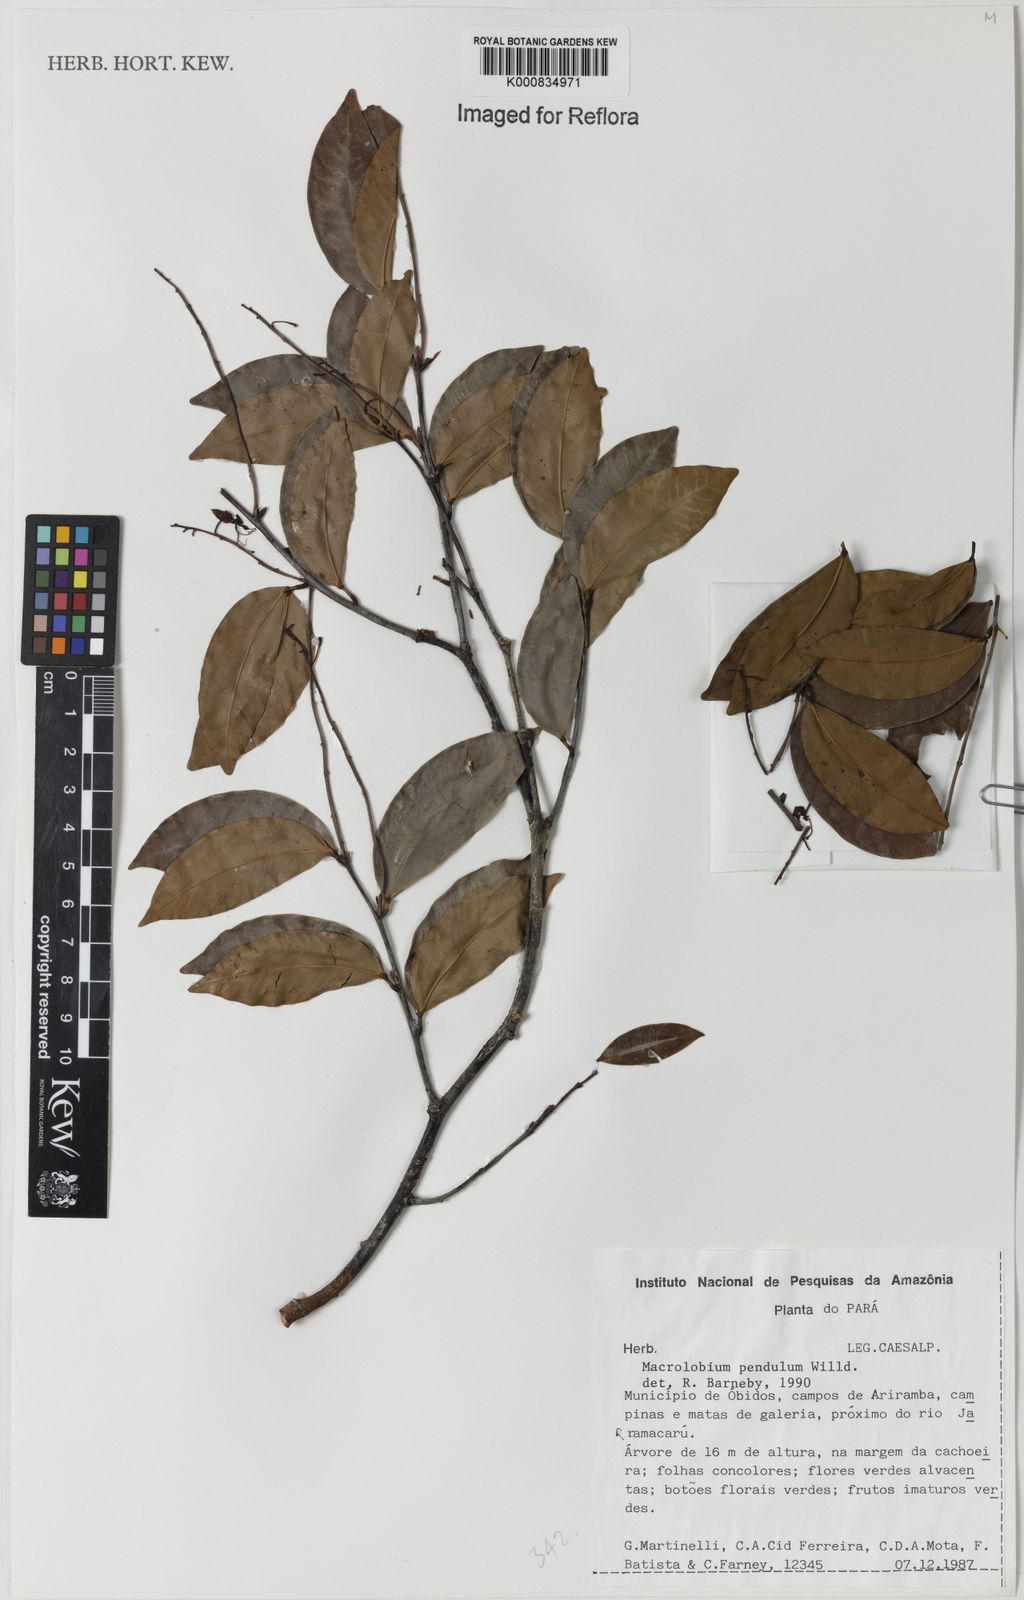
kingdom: Plantae
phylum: Tracheophyta
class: Magnoliopsida
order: Fabales
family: Fabaceae
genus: Macrolobium
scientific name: Macrolobium pendulum
